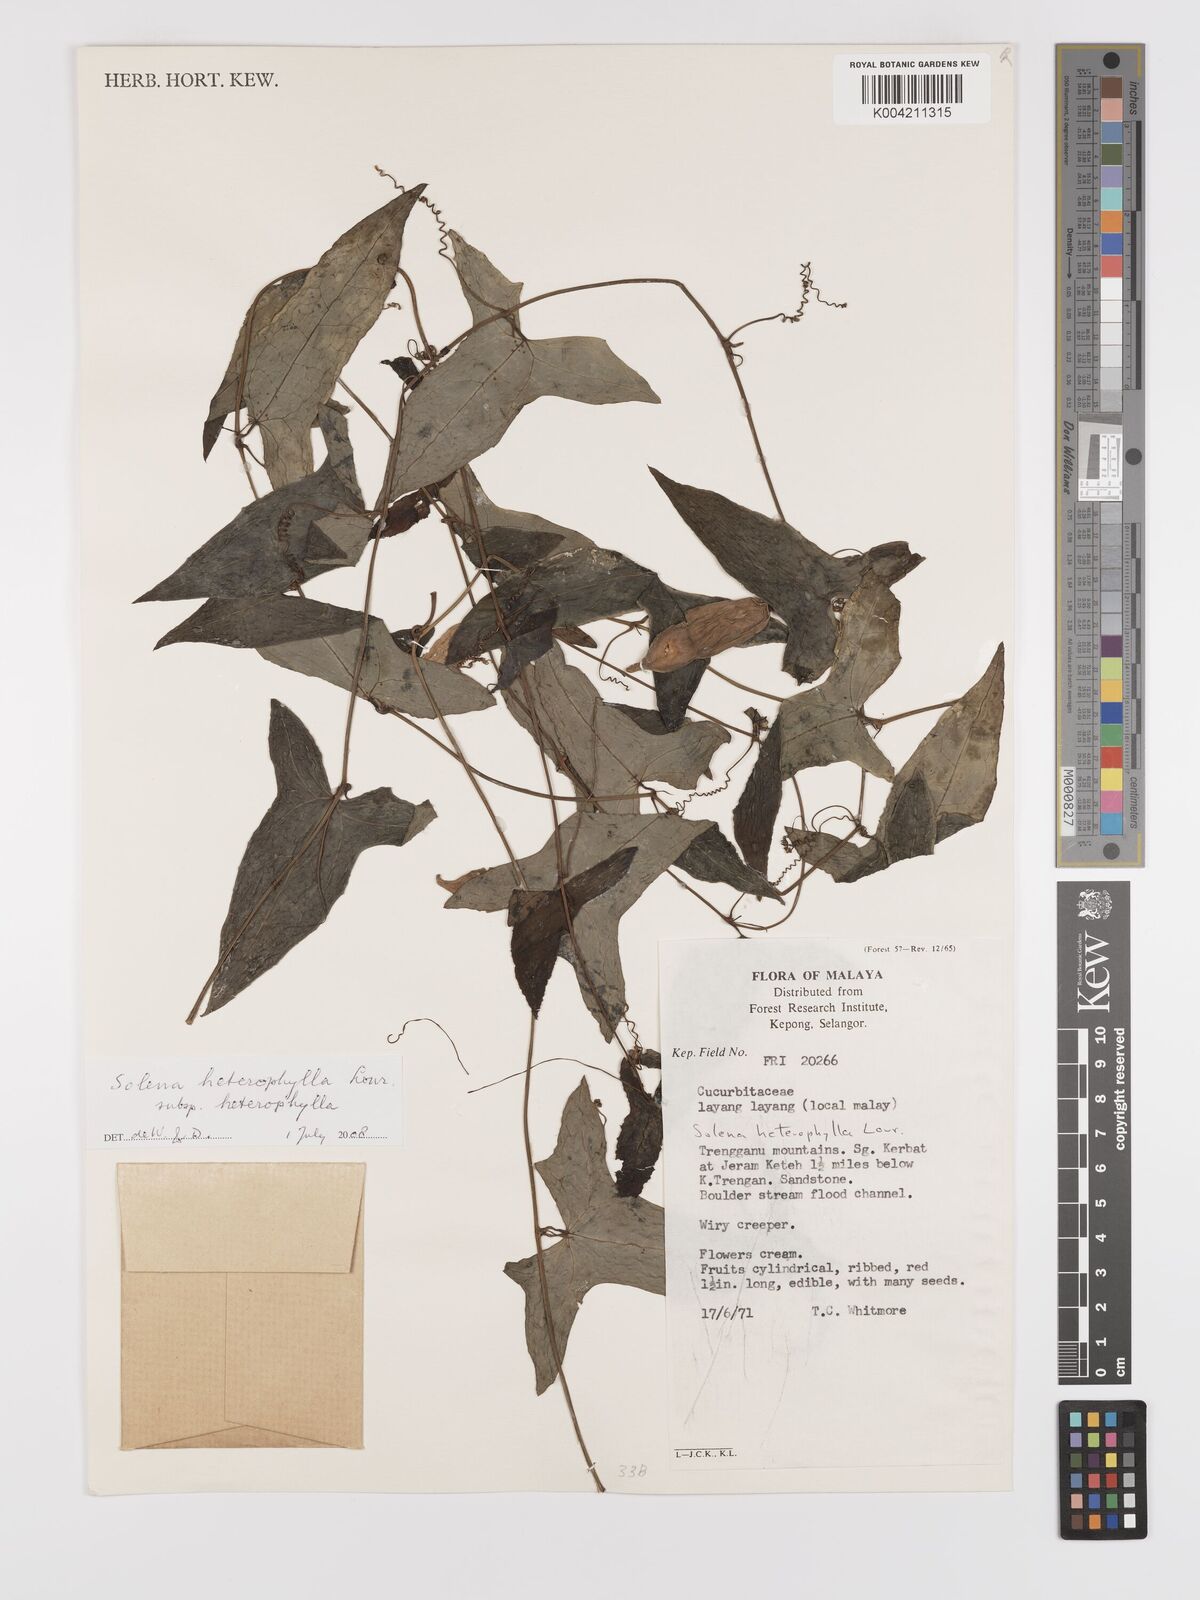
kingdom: Plantae
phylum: Tracheophyta
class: Magnoliopsida
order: Cucurbitales
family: Cucurbitaceae
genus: Solena
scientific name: Solena amplexicaulis
